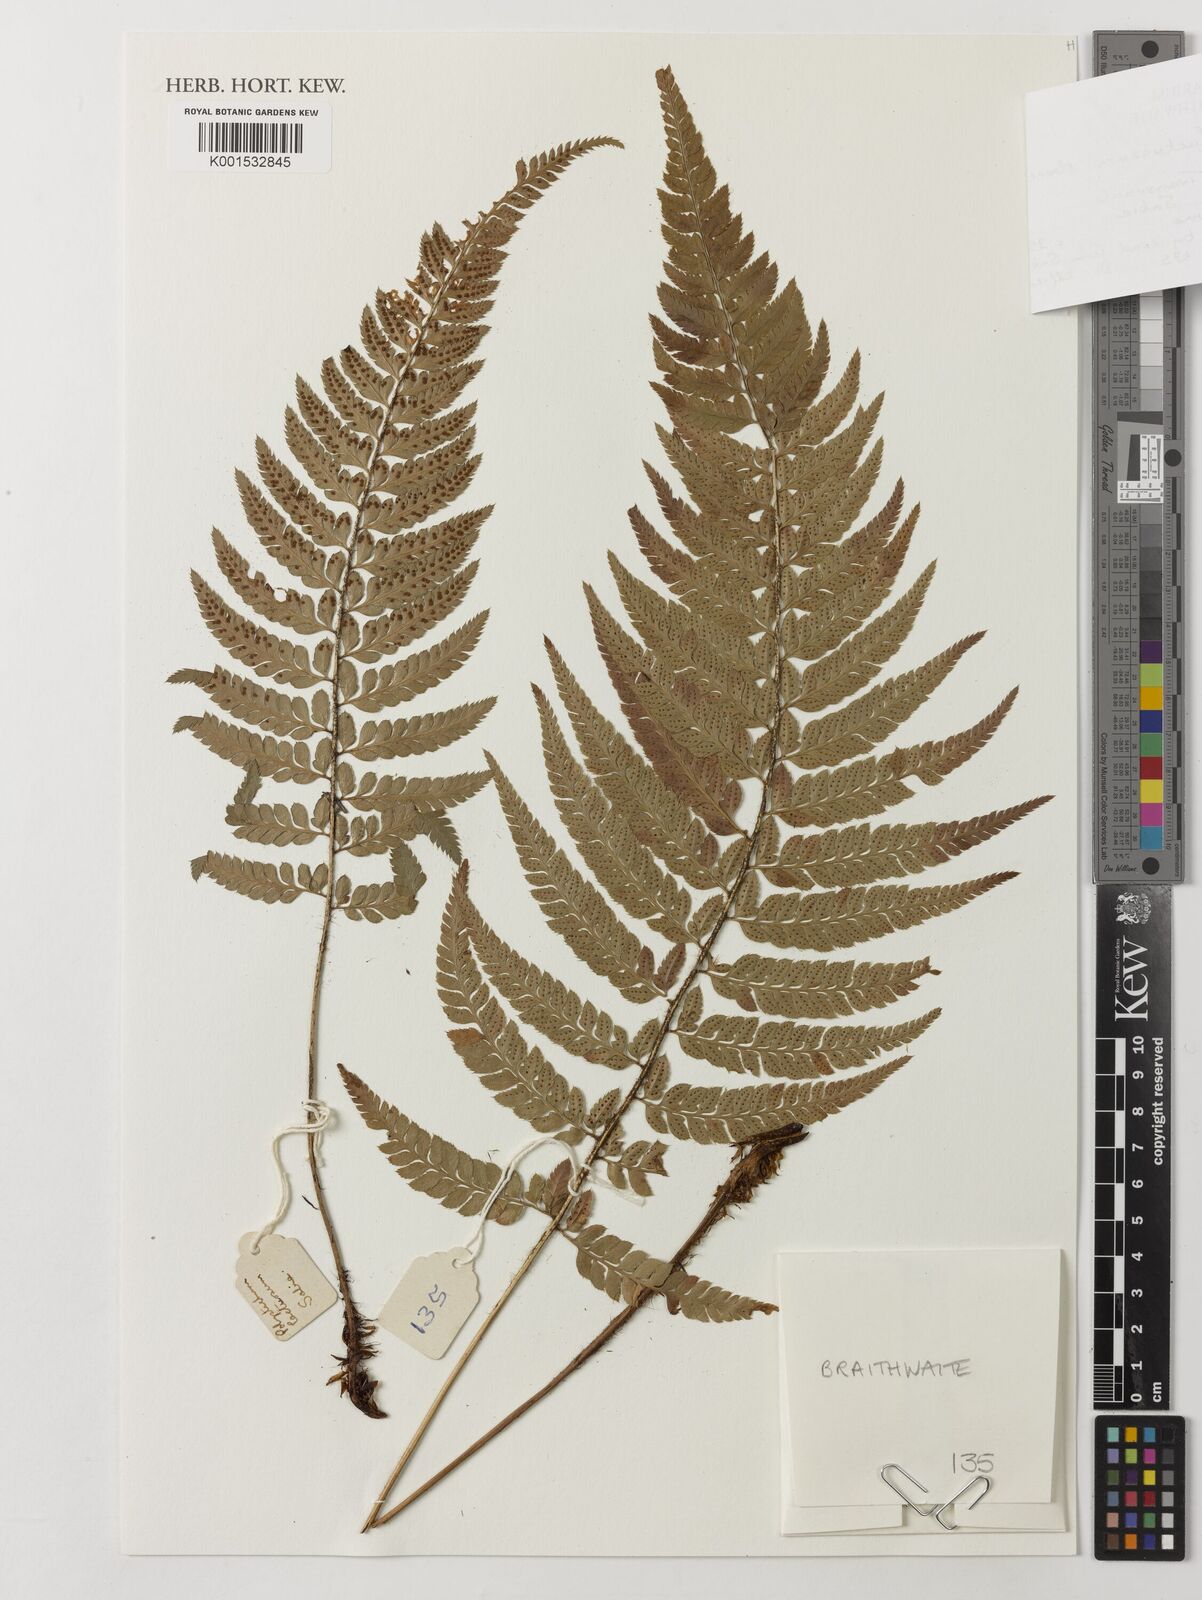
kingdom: Plantae
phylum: Tracheophyta
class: Polypodiopsida
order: Polypodiales
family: Dryopteridaceae
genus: Polystichum
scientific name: Polystichum luctuosum
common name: Korean rockfern
